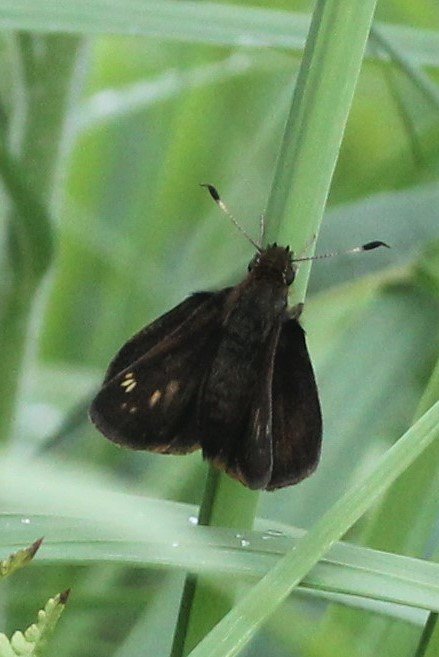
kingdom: Animalia
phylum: Arthropoda
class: Insecta
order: Lepidoptera
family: Hesperiidae
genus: Lon
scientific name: Lon hobomok
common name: Hobomok Skipper
